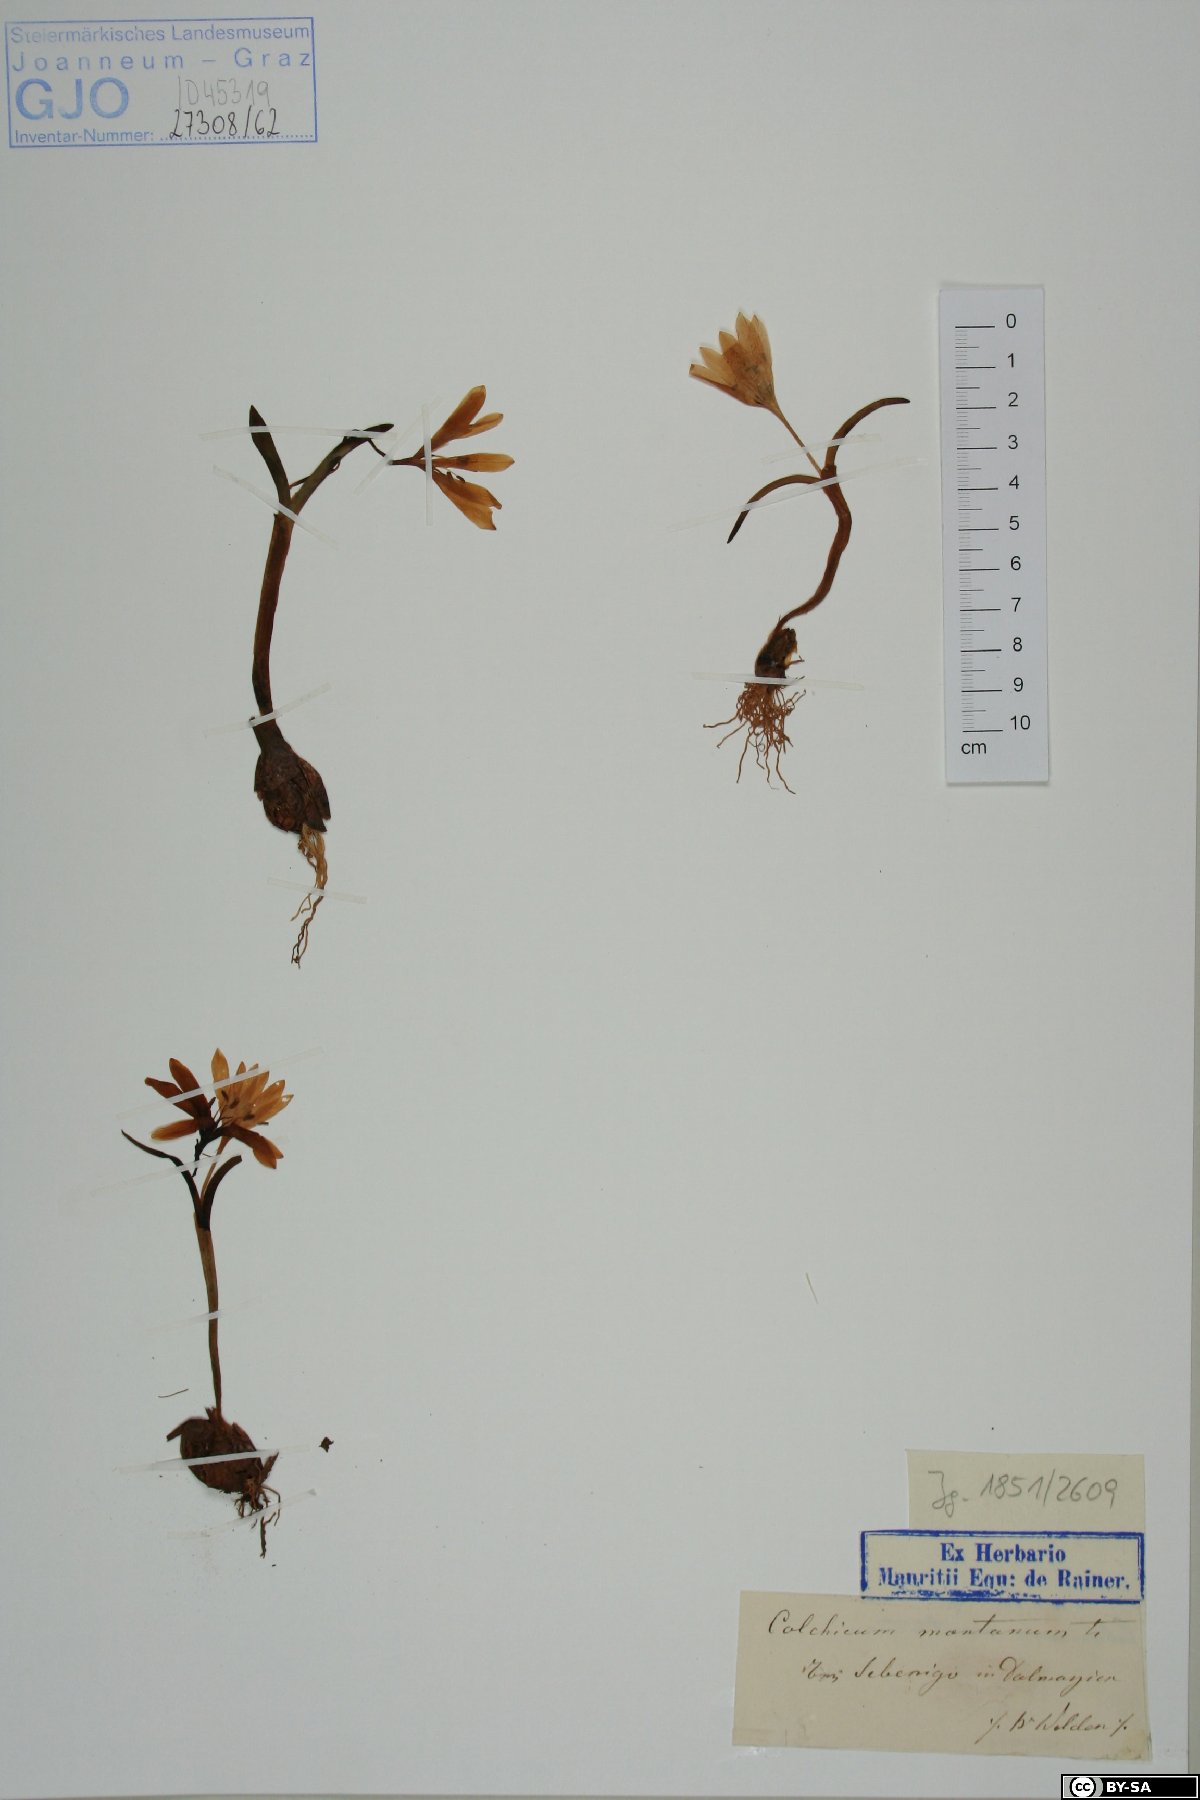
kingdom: Plantae
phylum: Tracheophyta
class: Liliopsida
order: Liliales
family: Colchicaceae
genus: Colchicum
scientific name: Colchicum montanum
